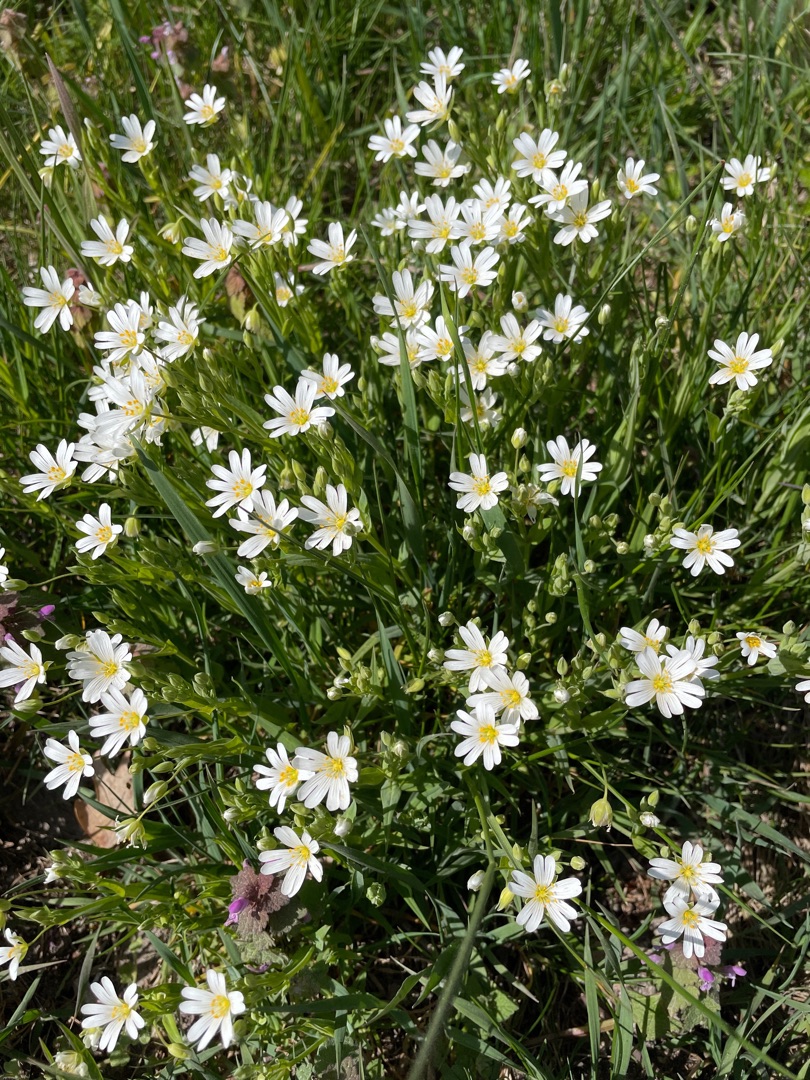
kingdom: Plantae
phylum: Tracheophyta
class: Magnoliopsida
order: Caryophyllales
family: Caryophyllaceae
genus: Rabelera
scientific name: Rabelera holostea
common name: Stor fladstjerne
